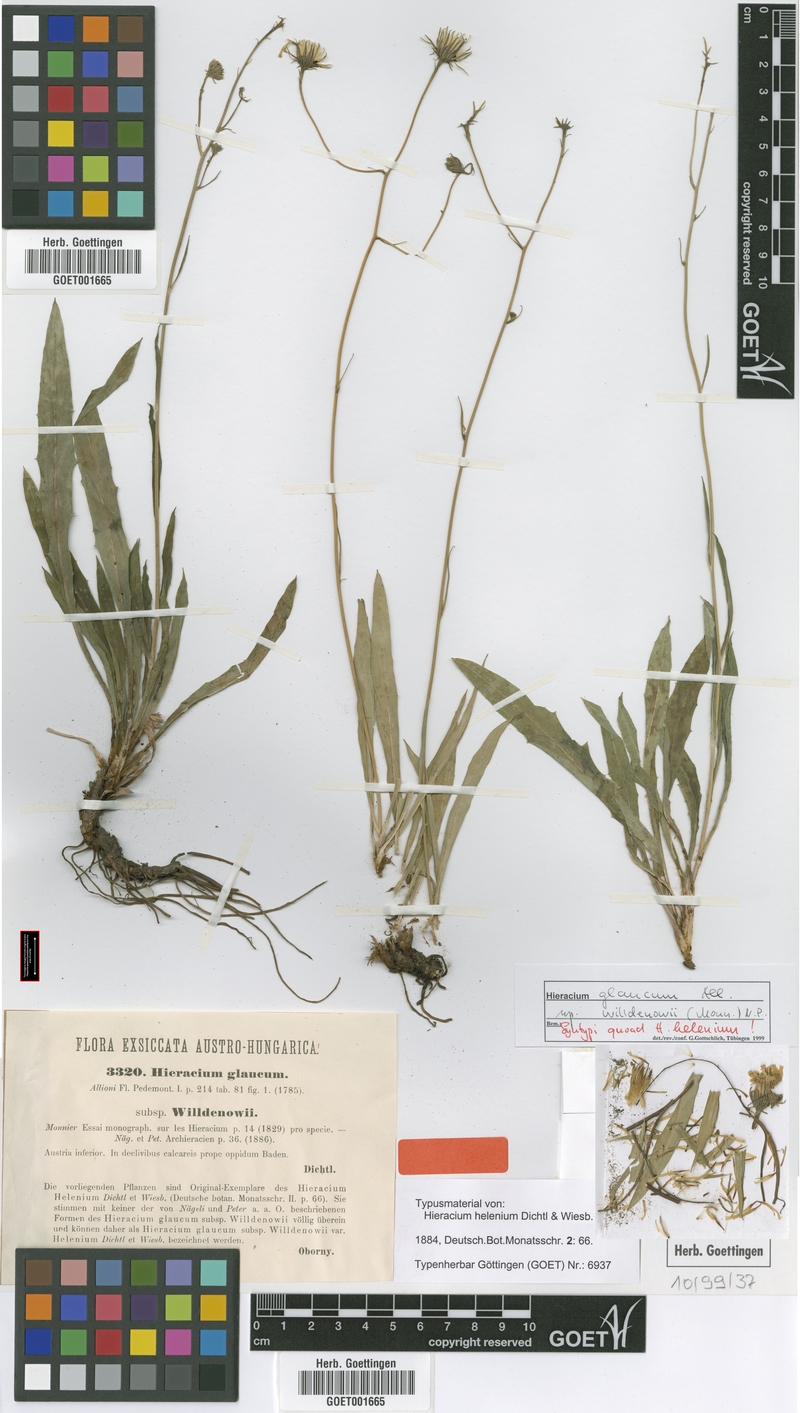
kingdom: Plantae
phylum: Tracheophyta
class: Magnoliopsida
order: Asterales
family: Asteraceae
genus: Hieracium
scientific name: Hieracium glaucum
